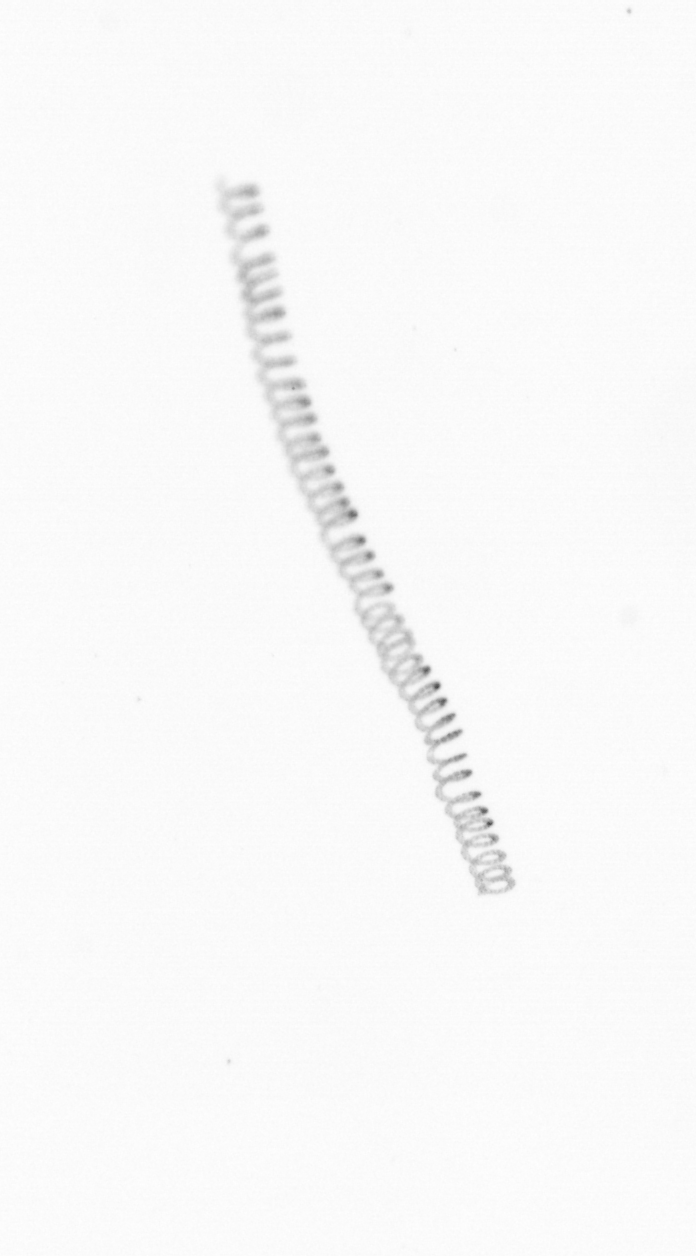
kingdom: Chromista
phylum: Ochrophyta
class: Bacillariophyceae
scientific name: Bacillariophyceae
